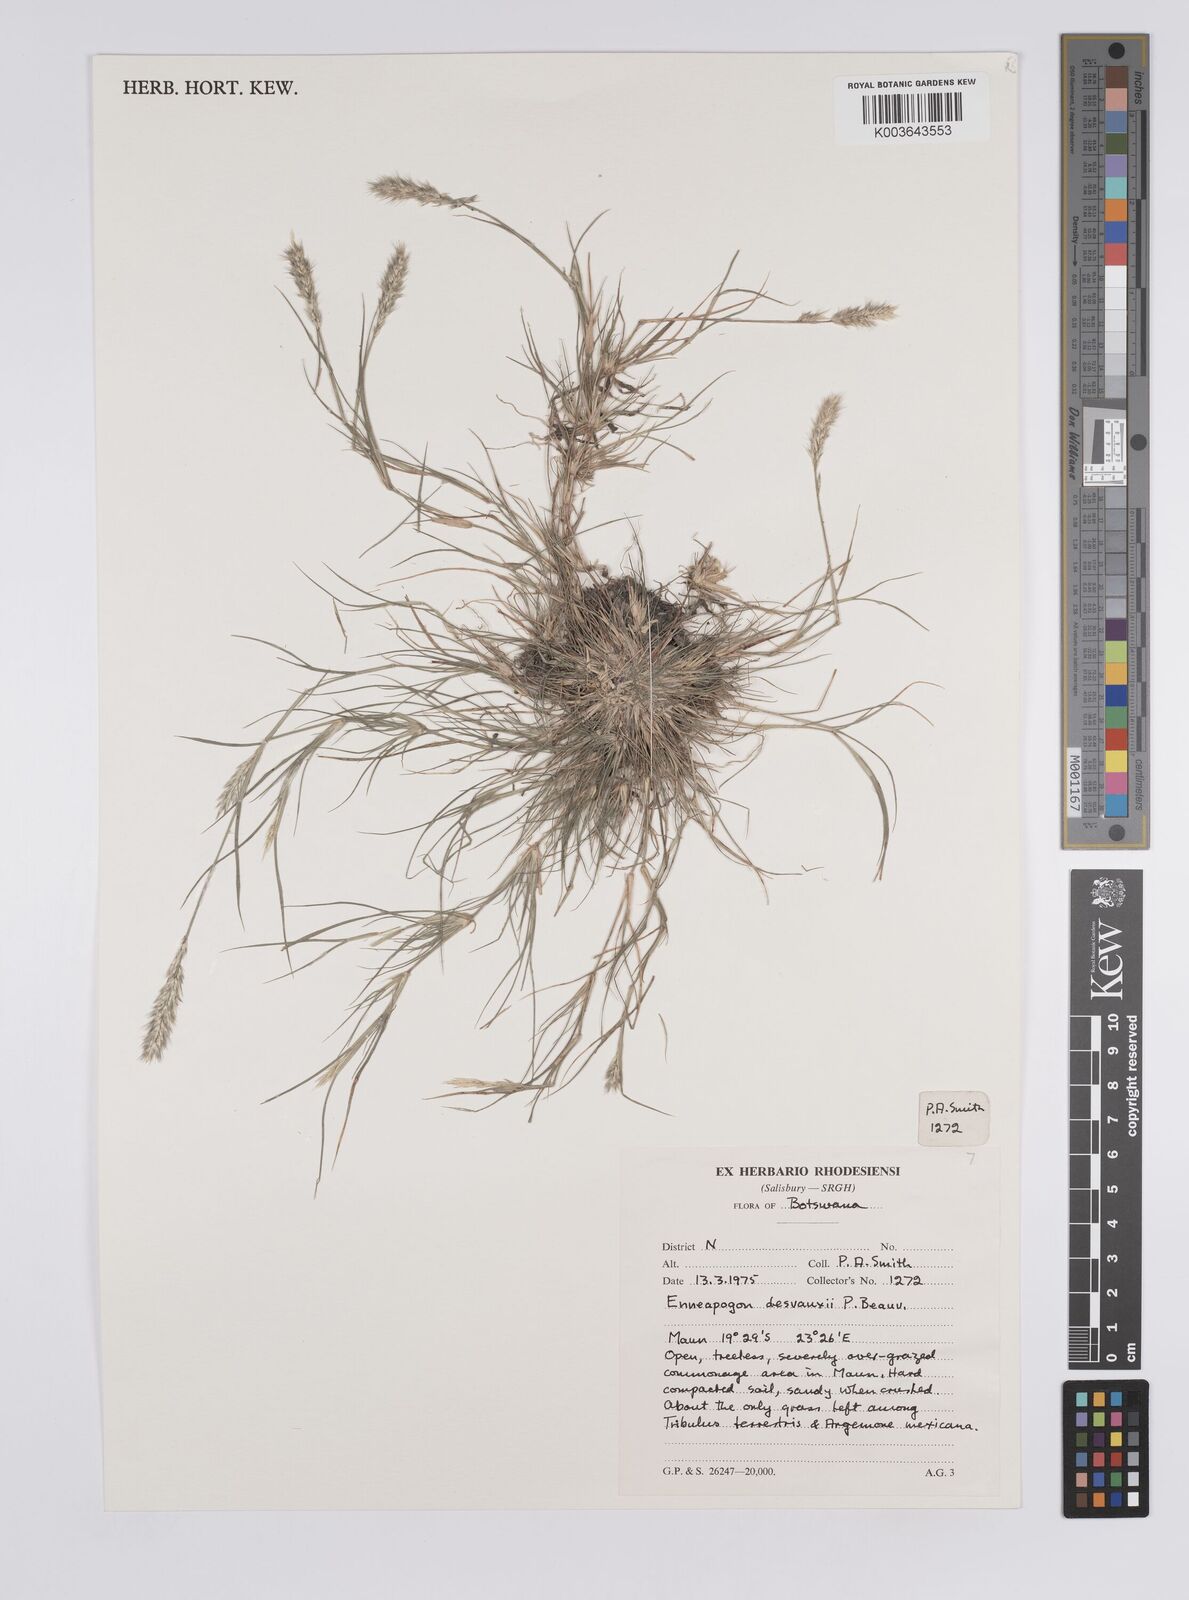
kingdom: Plantae
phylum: Tracheophyta
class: Liliopsida
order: Poales
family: Poaceae
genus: Enneapogon
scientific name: Enneapogon desvauxii
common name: Feather pappus grass
